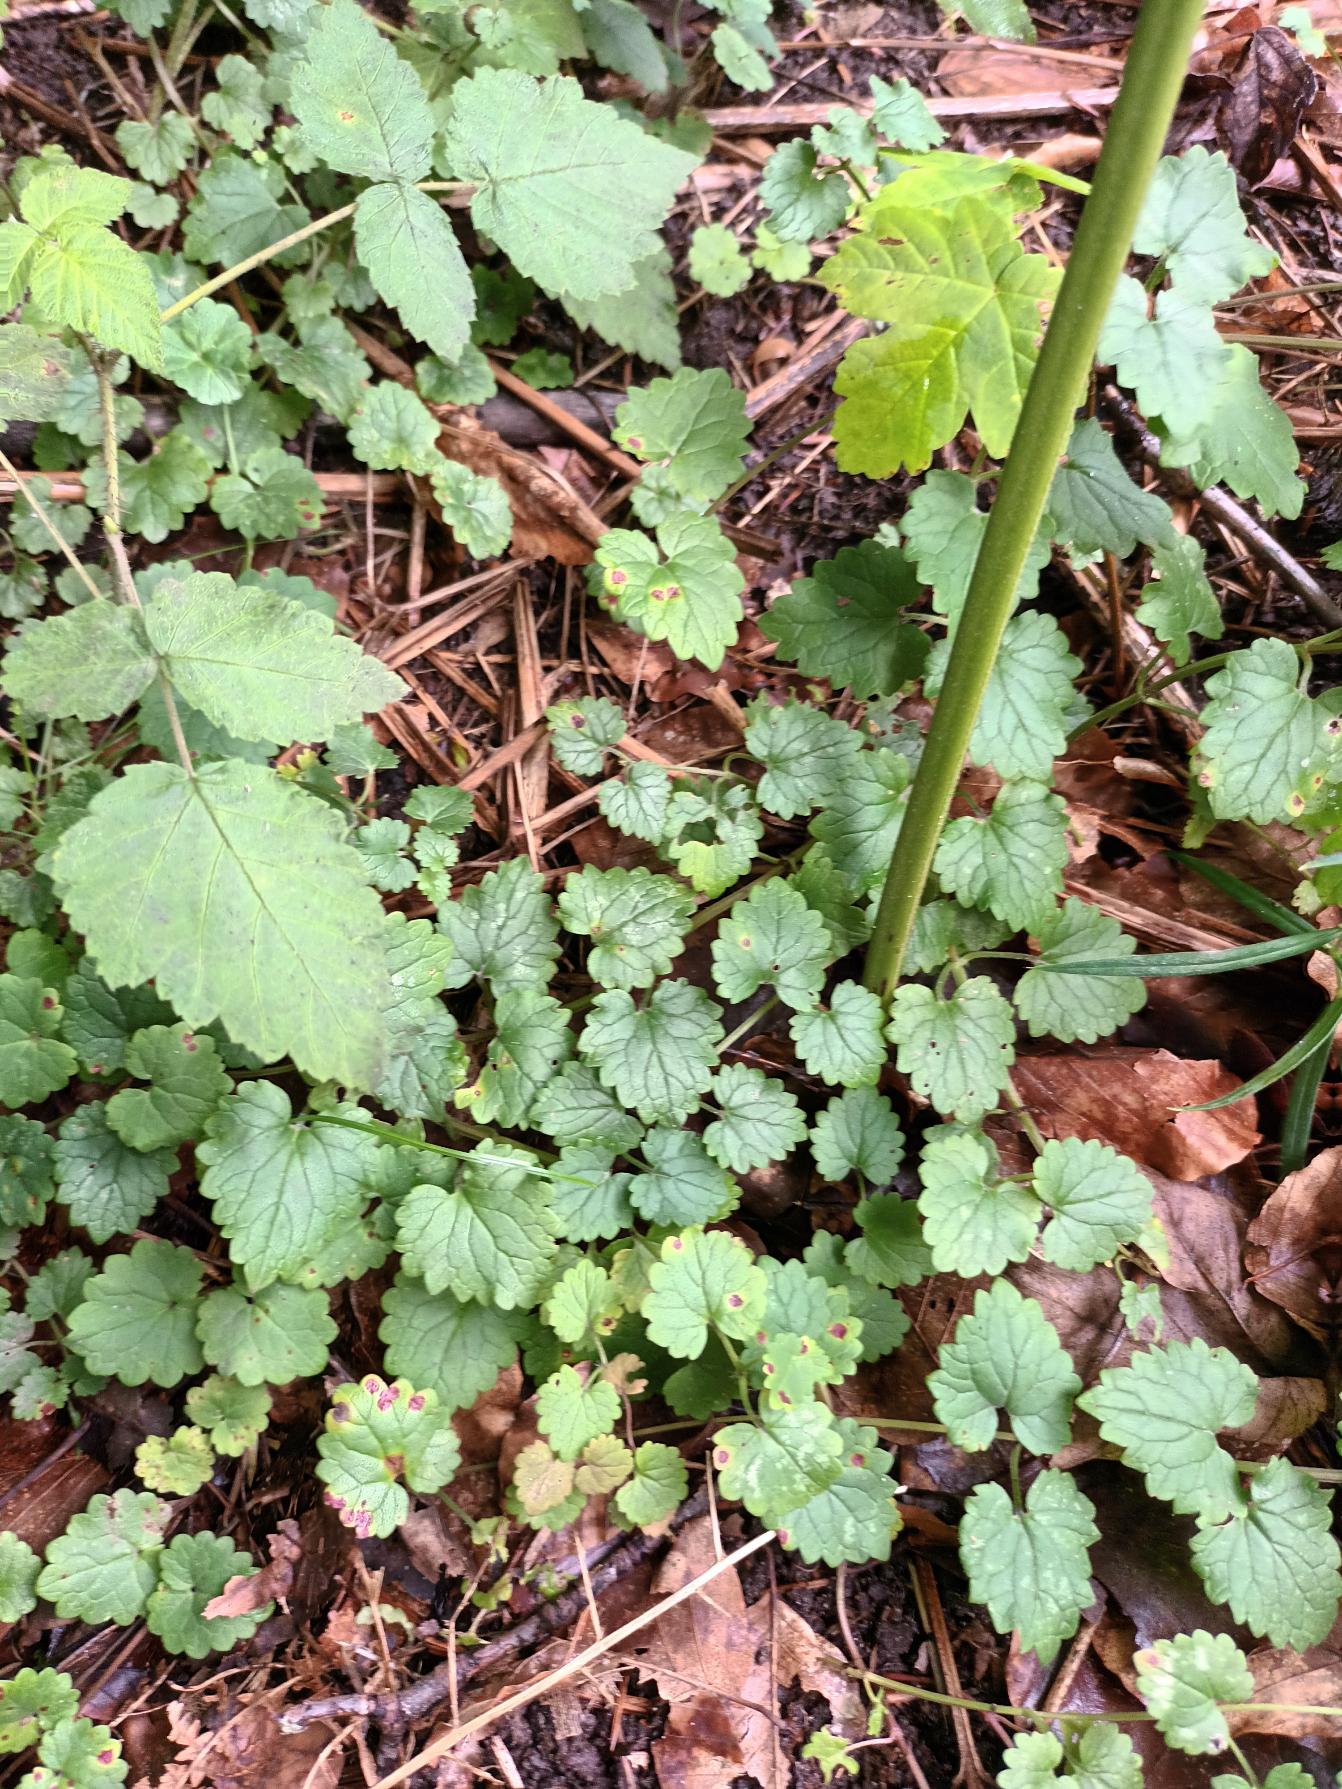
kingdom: Plantae
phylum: Tracheophyta
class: Magnoliopsida
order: Lamiales
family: Lamiaceae
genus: Glechoma
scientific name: Glechoma hederacea
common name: Korsknap
